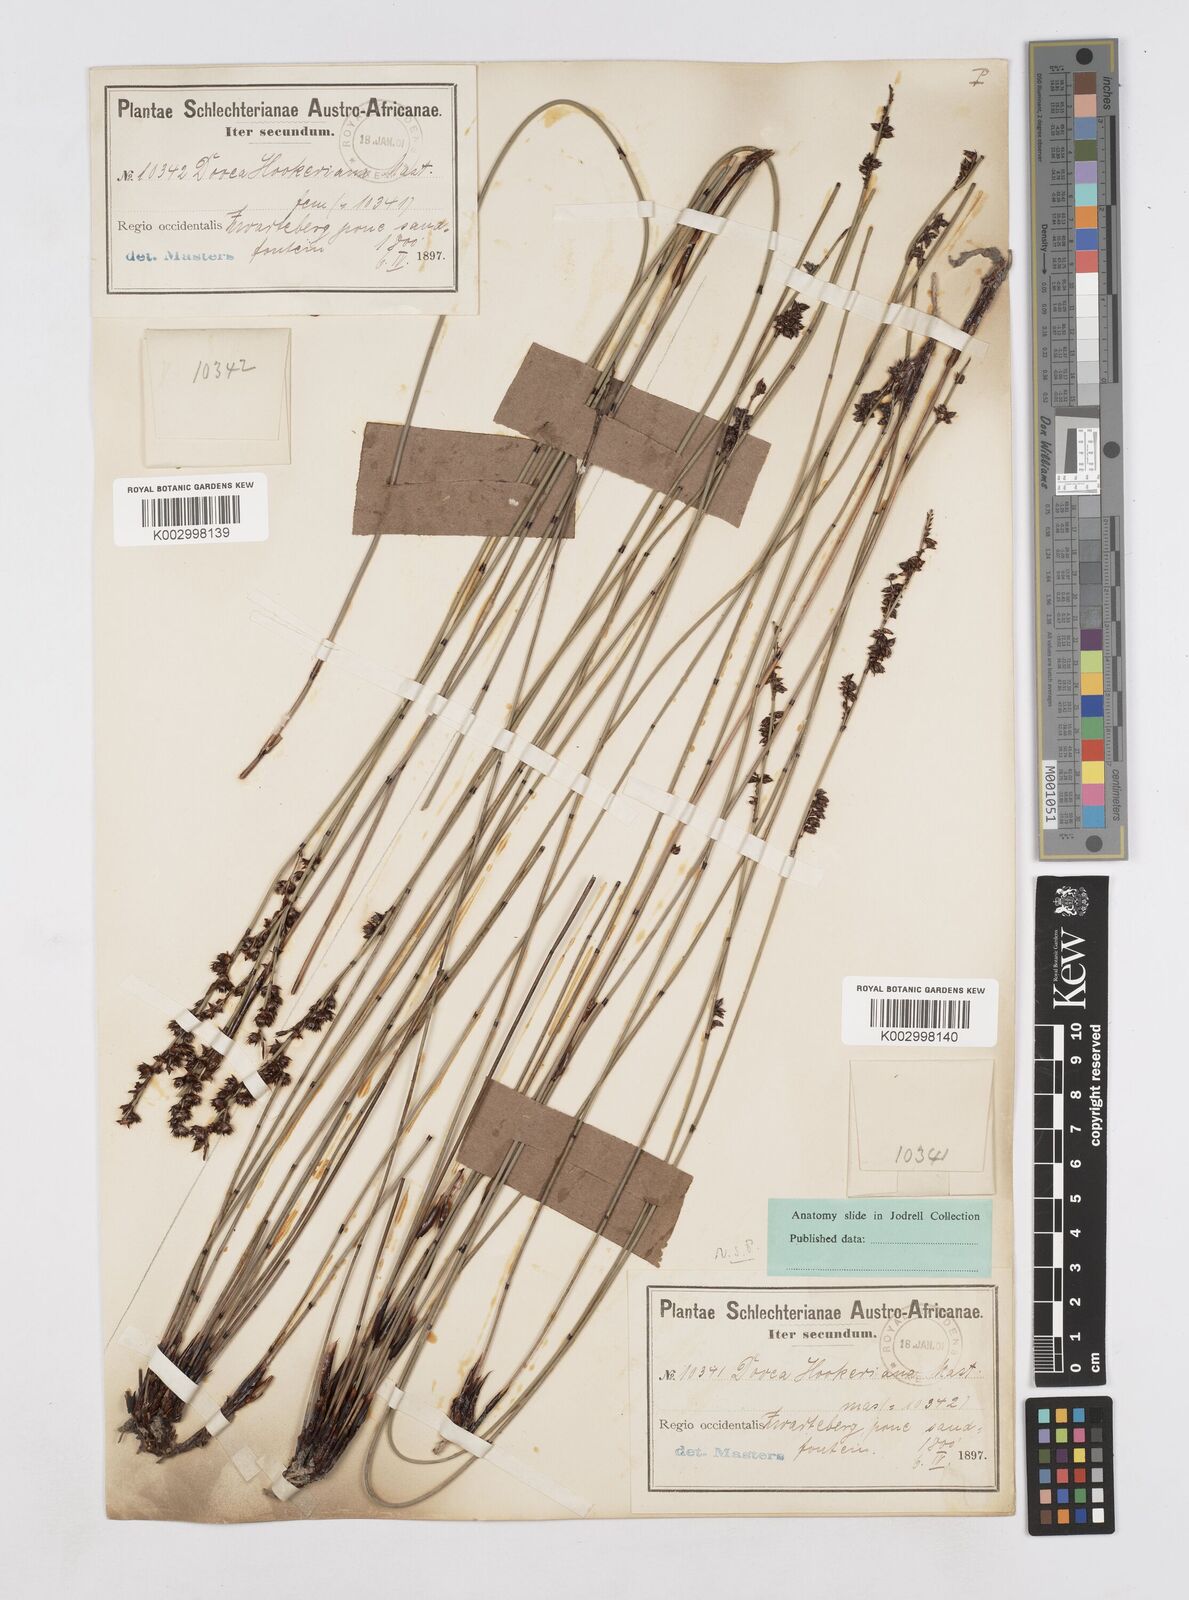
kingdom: Plantae
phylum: Tracheophyta
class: Liliopsida
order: Poales
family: Restionaceae
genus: Elegia
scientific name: Elegia hookeriana
